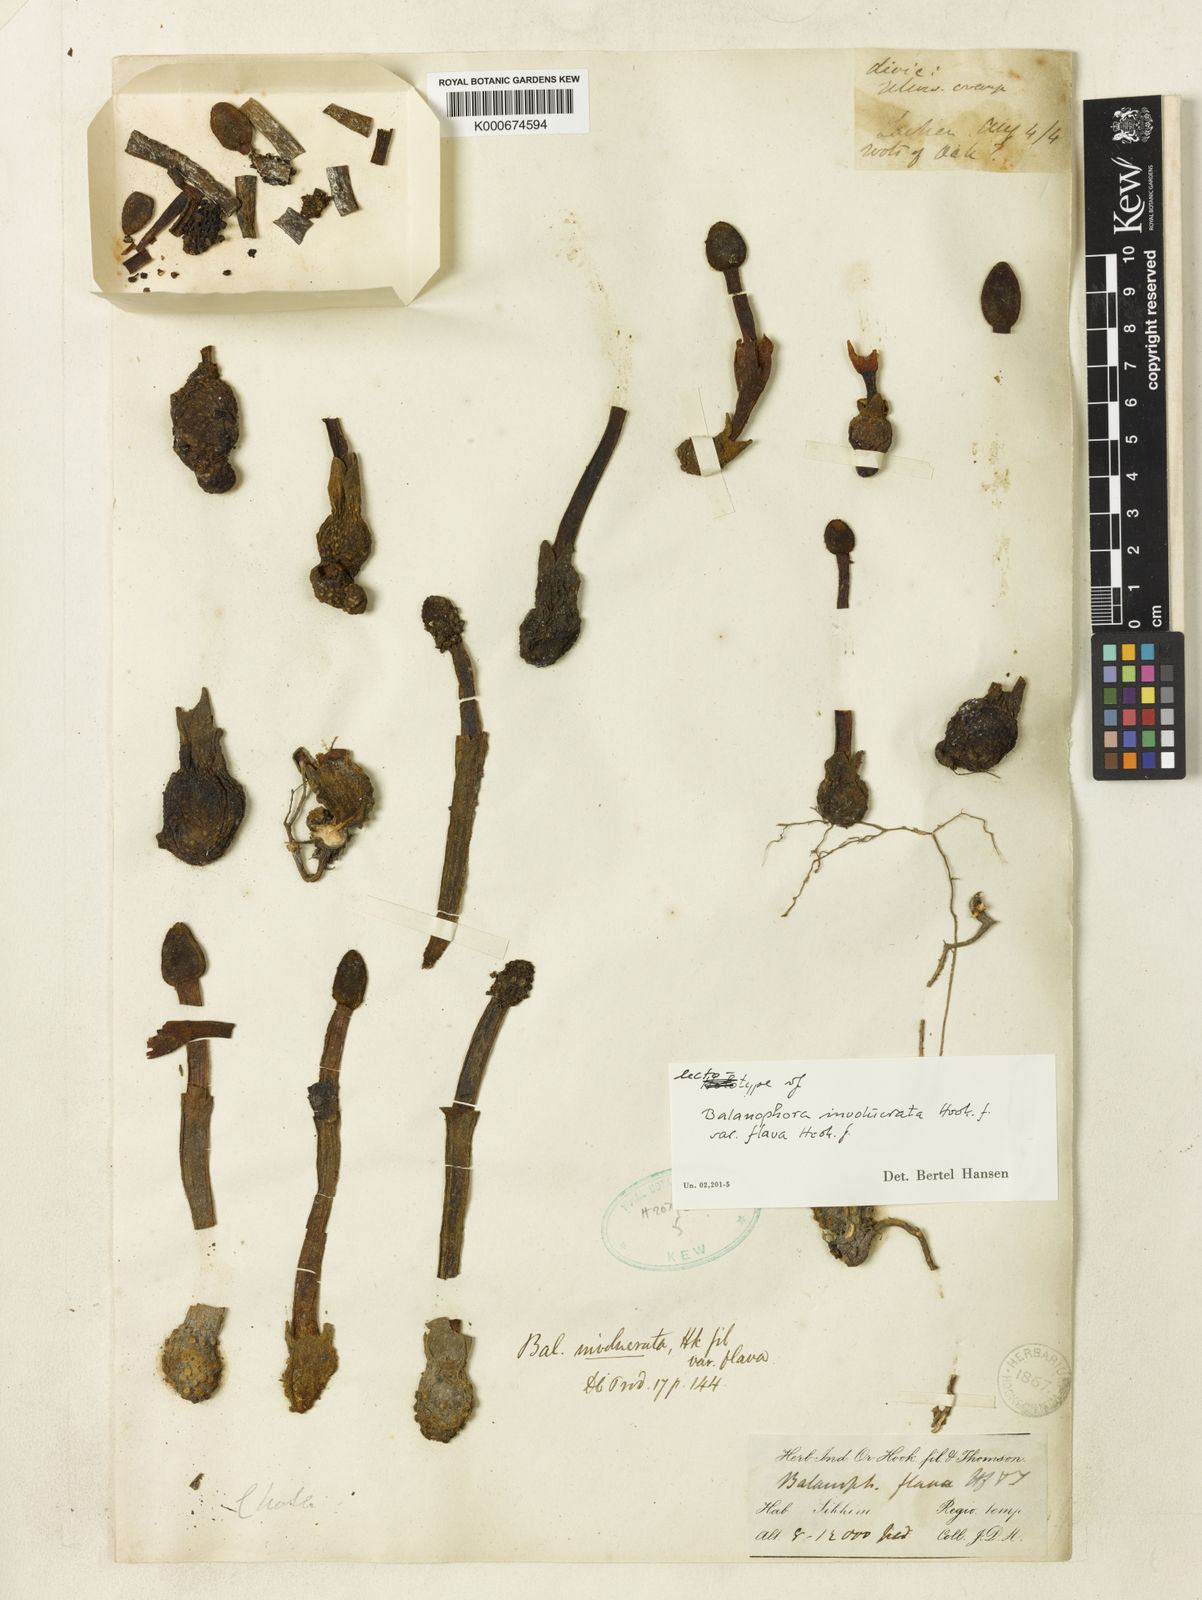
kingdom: Plantae
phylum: Tracheophyta
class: Magnoliopsida
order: Santalales
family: Balanophoraceae
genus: Balanophora
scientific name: Balanophora
